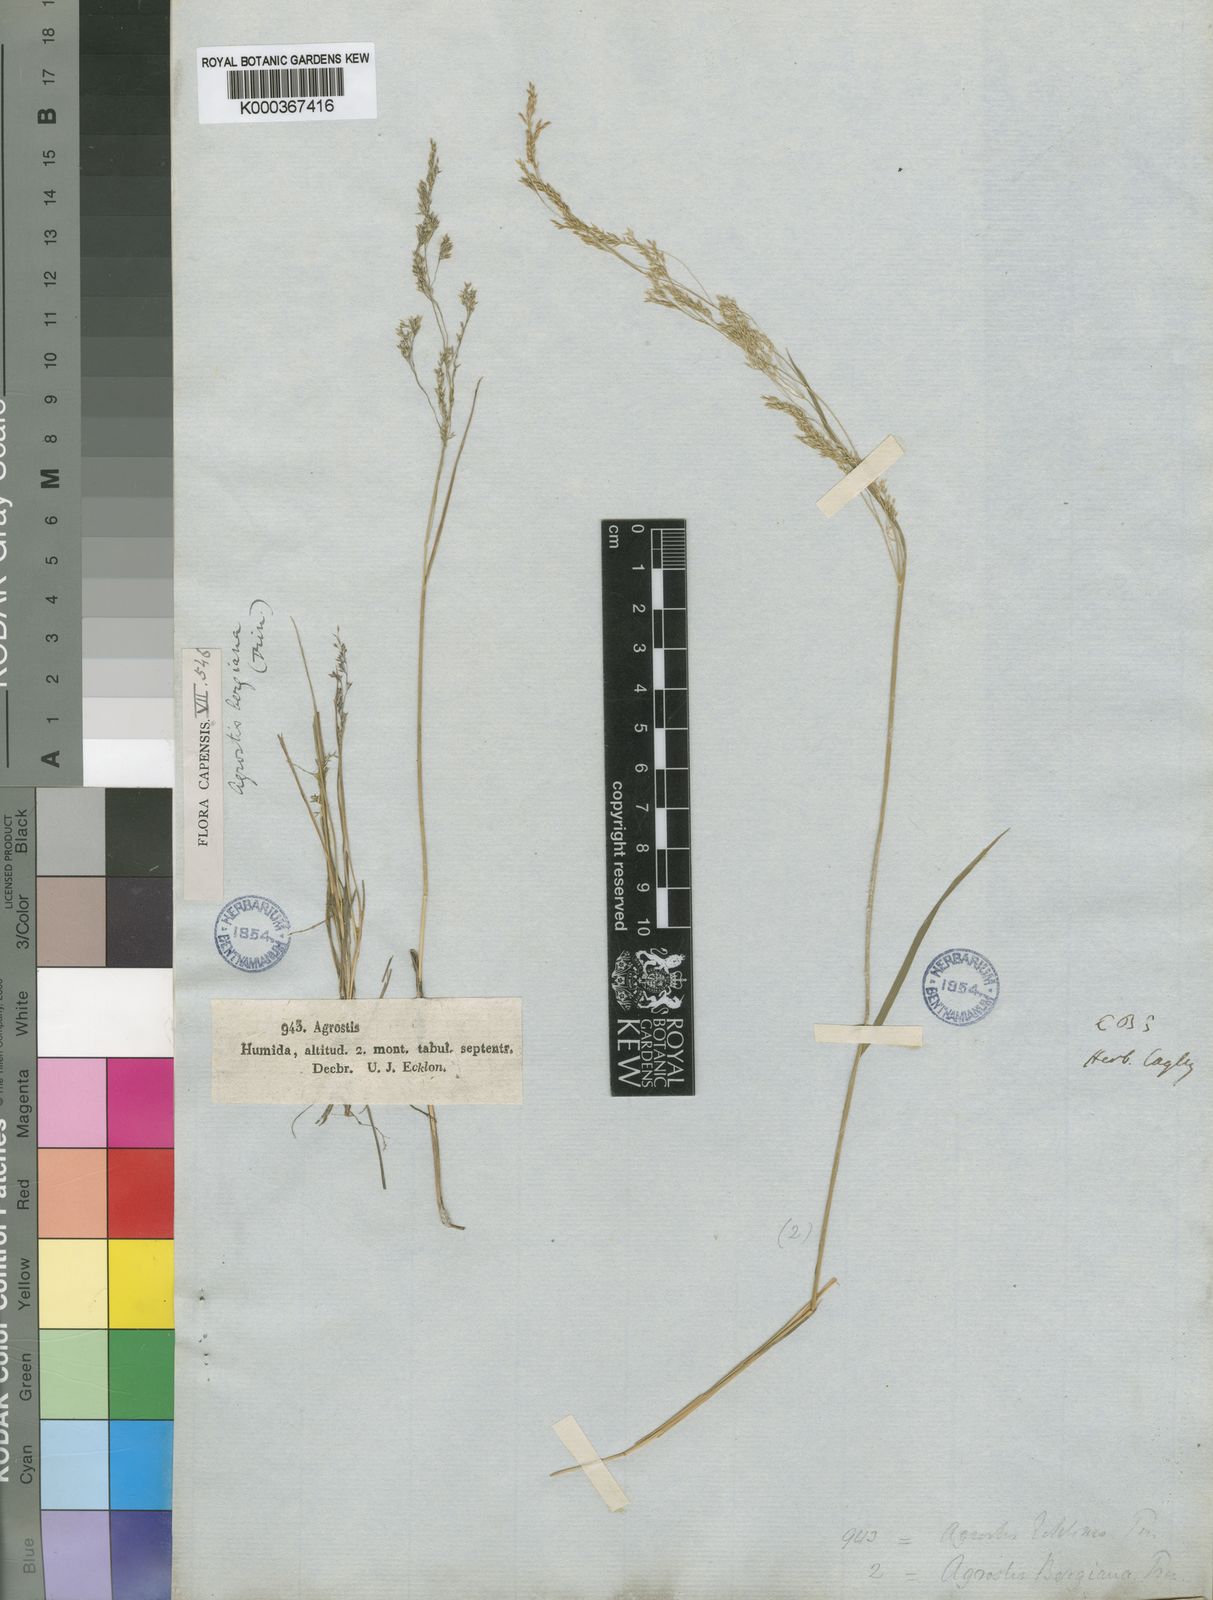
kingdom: Plantae
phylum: Tracheophyta
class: Liliopsida
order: Poales
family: Poaceae
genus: Agrostis
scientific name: Agrostis bergiana
